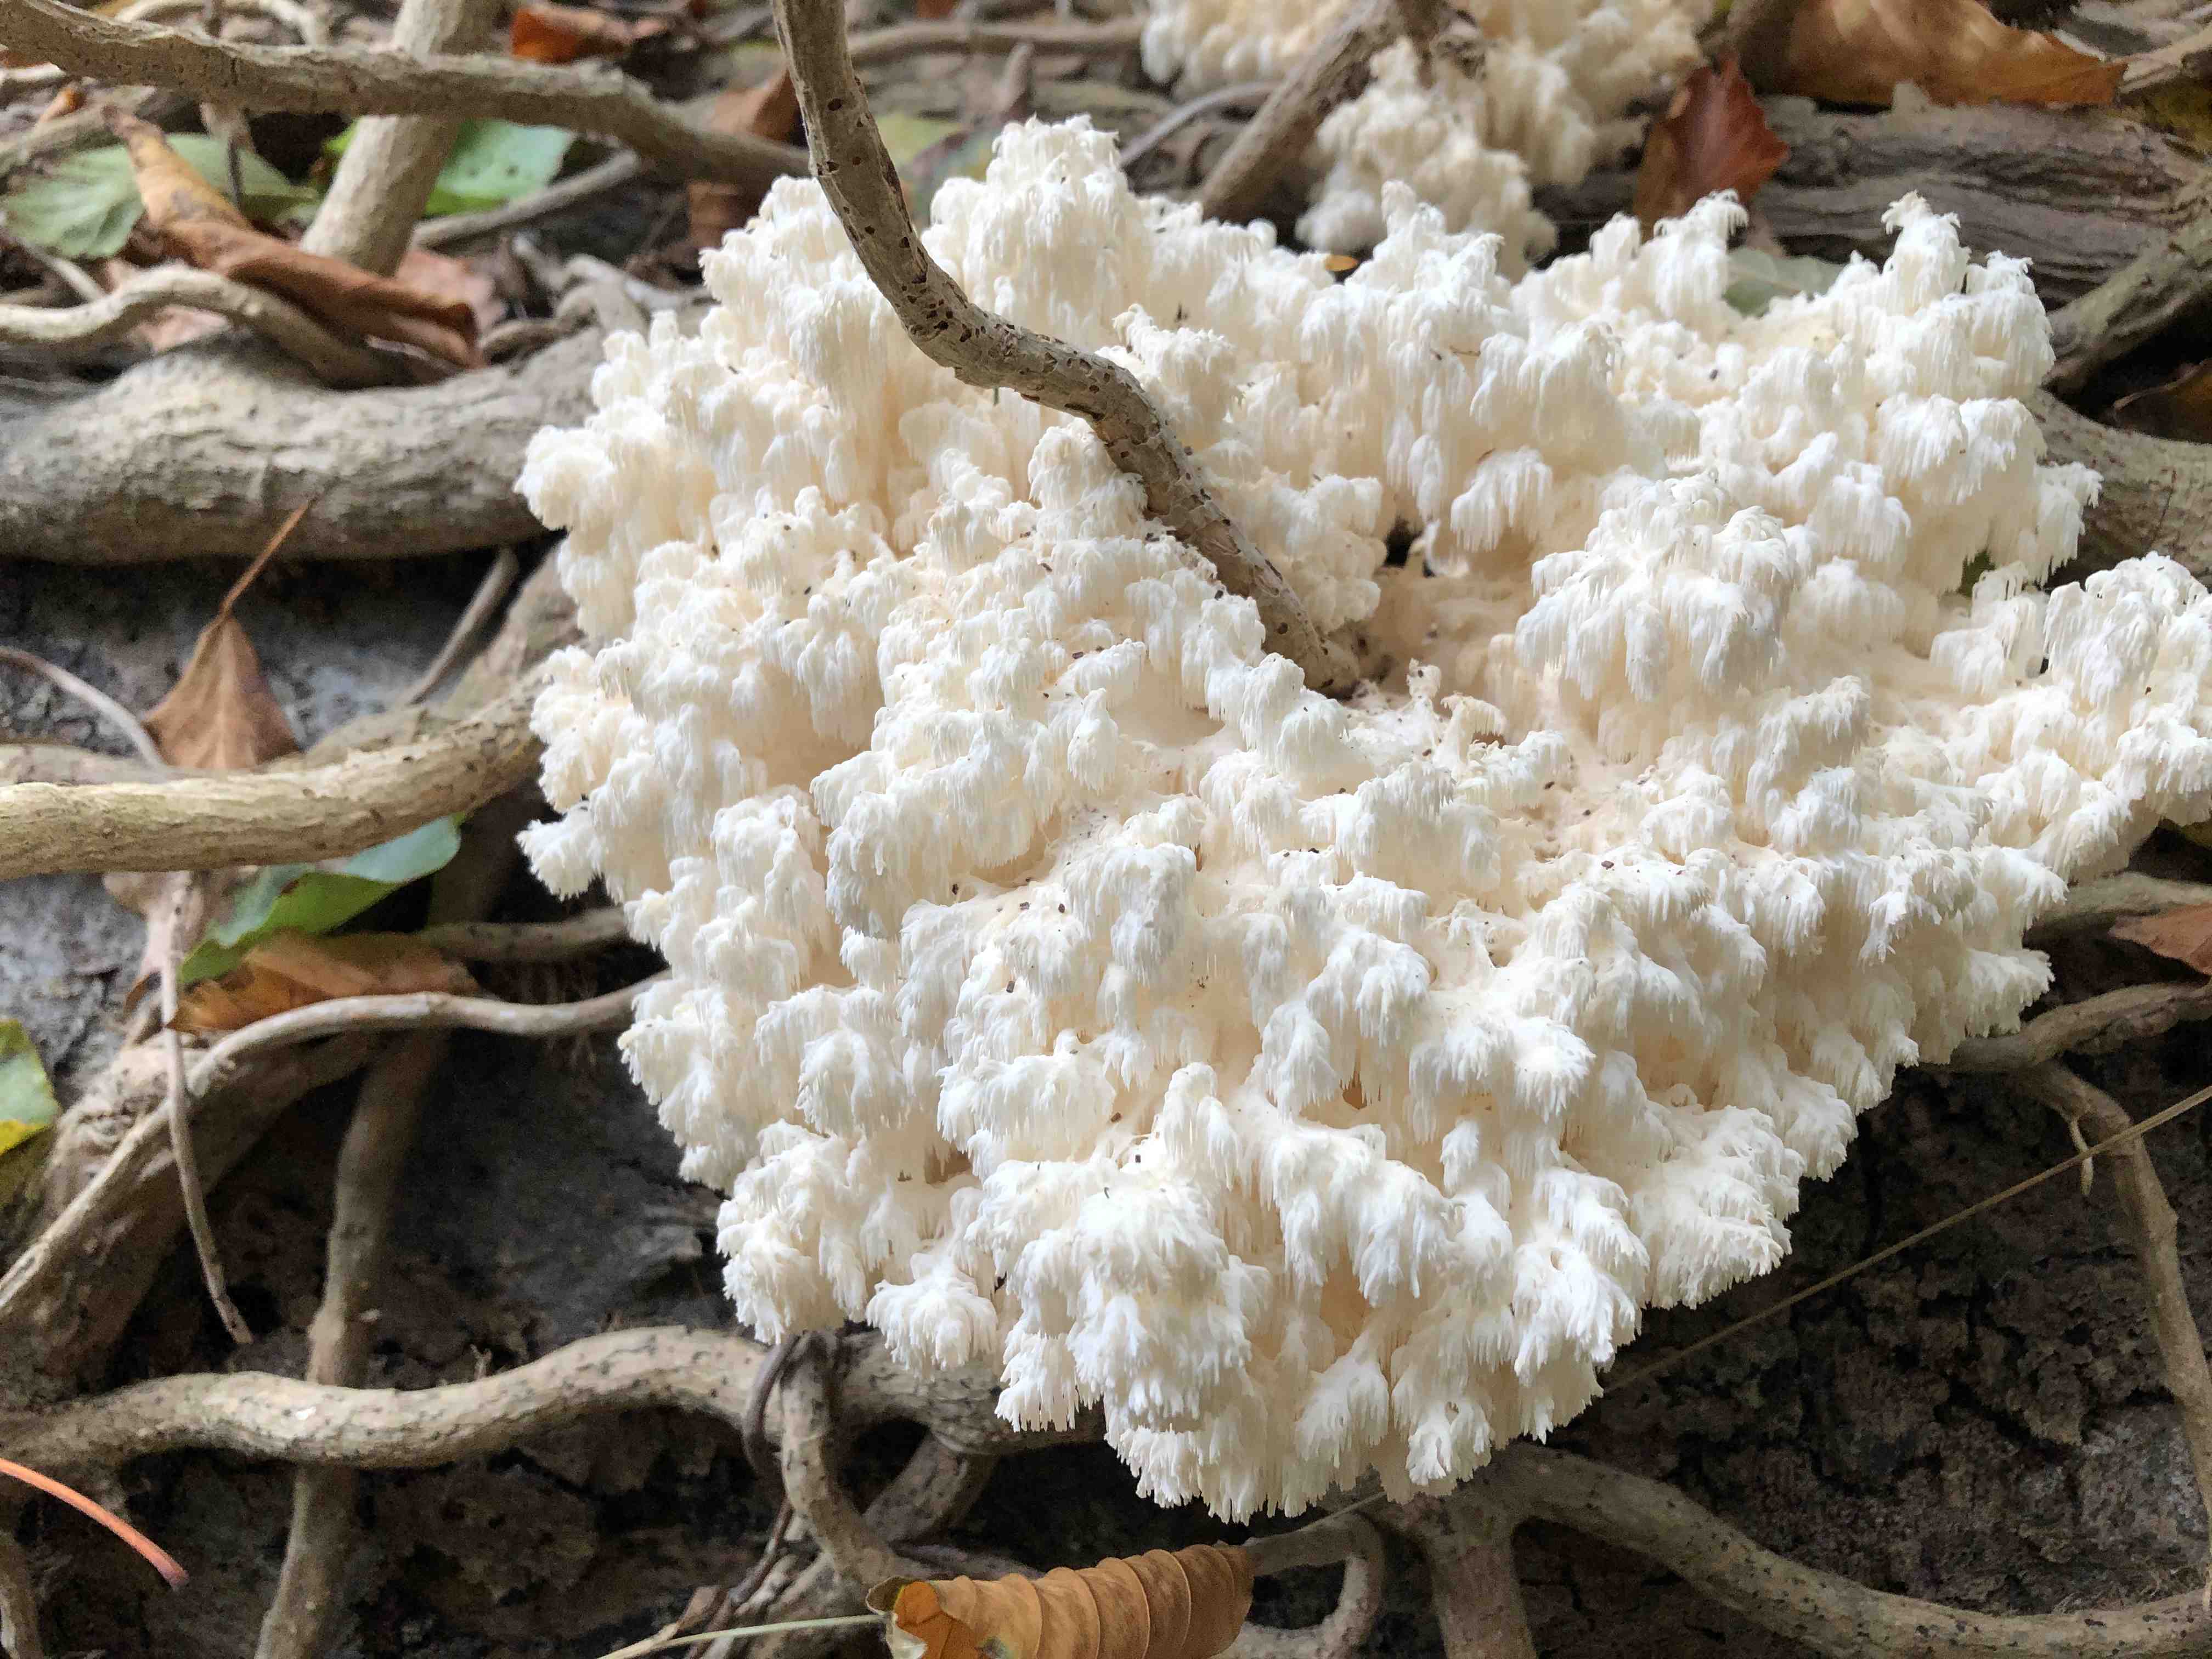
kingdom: Fungi
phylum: Basidiomycota
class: Agaricomycetes
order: Russulales
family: Hericiaceae
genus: Hericium
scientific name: Hericium coralloides
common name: koralpigsvamp
